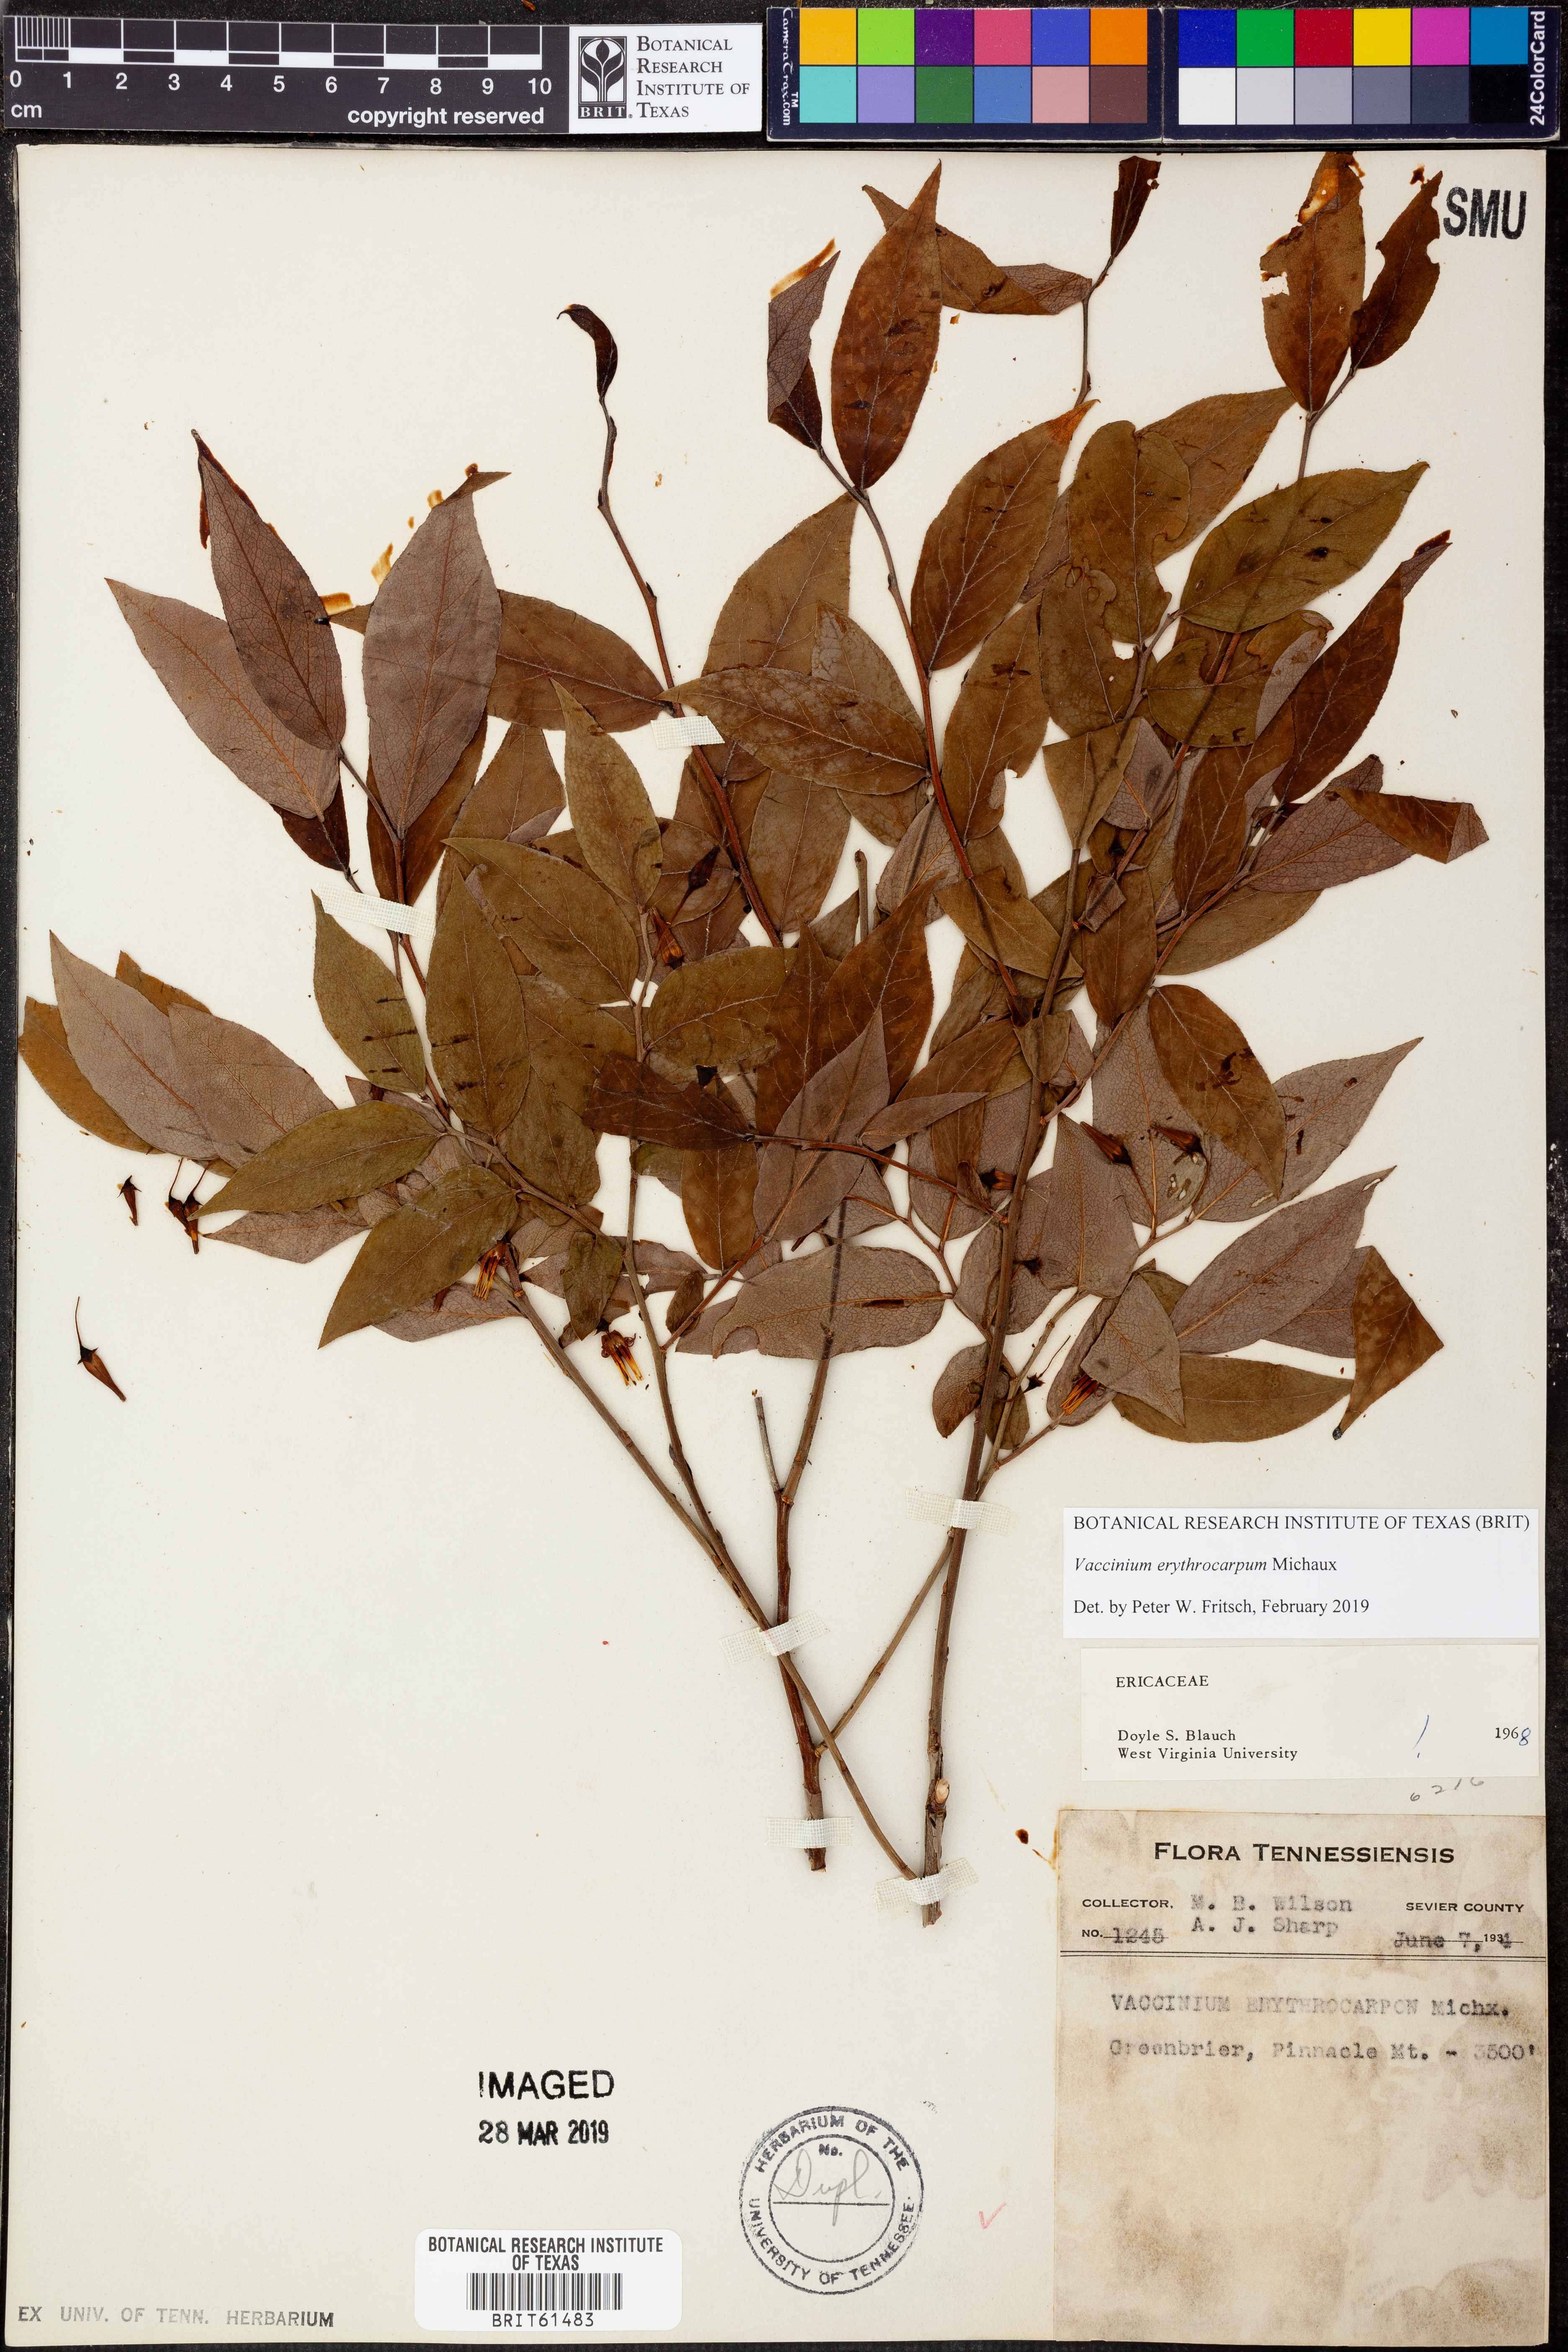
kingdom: Plantae
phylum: Tracheophyta
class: Magnoliopsida
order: Ericales
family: Ericaceae
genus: Vaccinium
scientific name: Vaccinium erythrocarpum
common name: Bearberry
